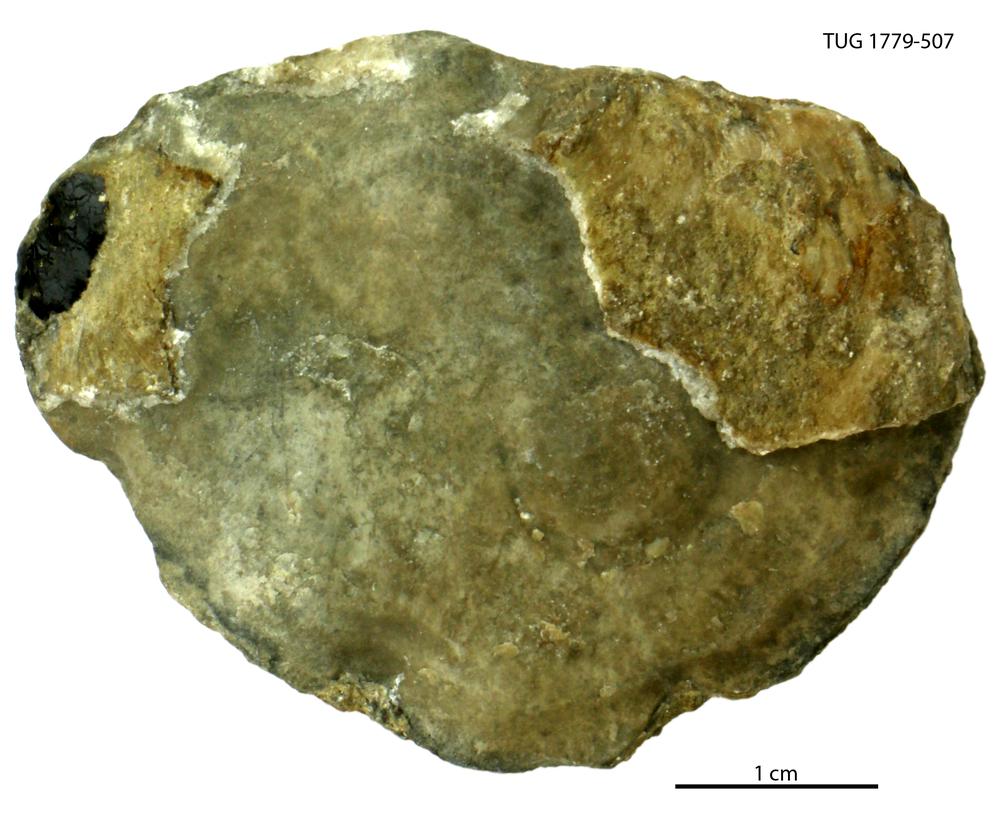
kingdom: Animalia
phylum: Mollusca
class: Bivalvia
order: Lucinida
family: Lucinidae
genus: Illionia
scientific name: Illionia Lucina prisca
